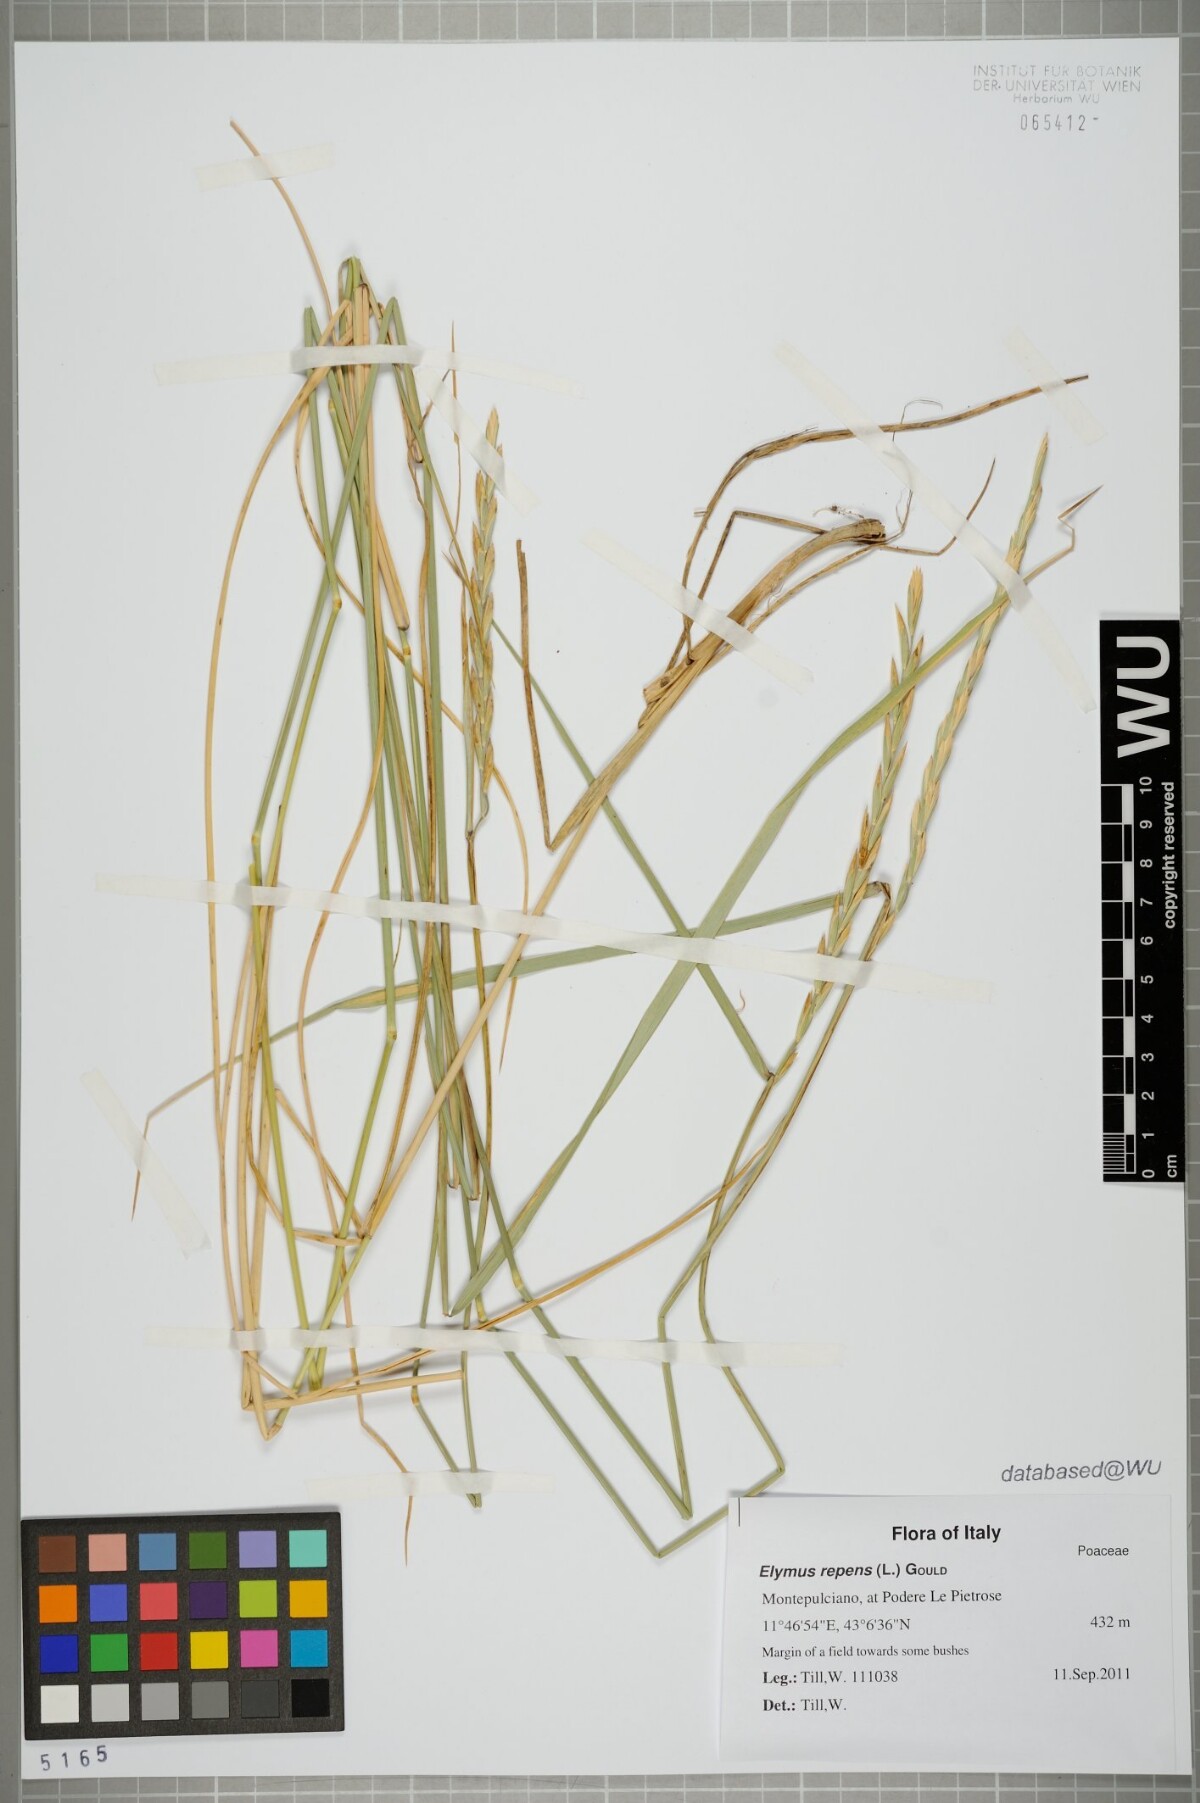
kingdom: Plantae
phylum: Tracheophyta
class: Liliopsida
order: Poales
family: Poaceae
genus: Elymus
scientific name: Elymus repens
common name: Quackgrass
